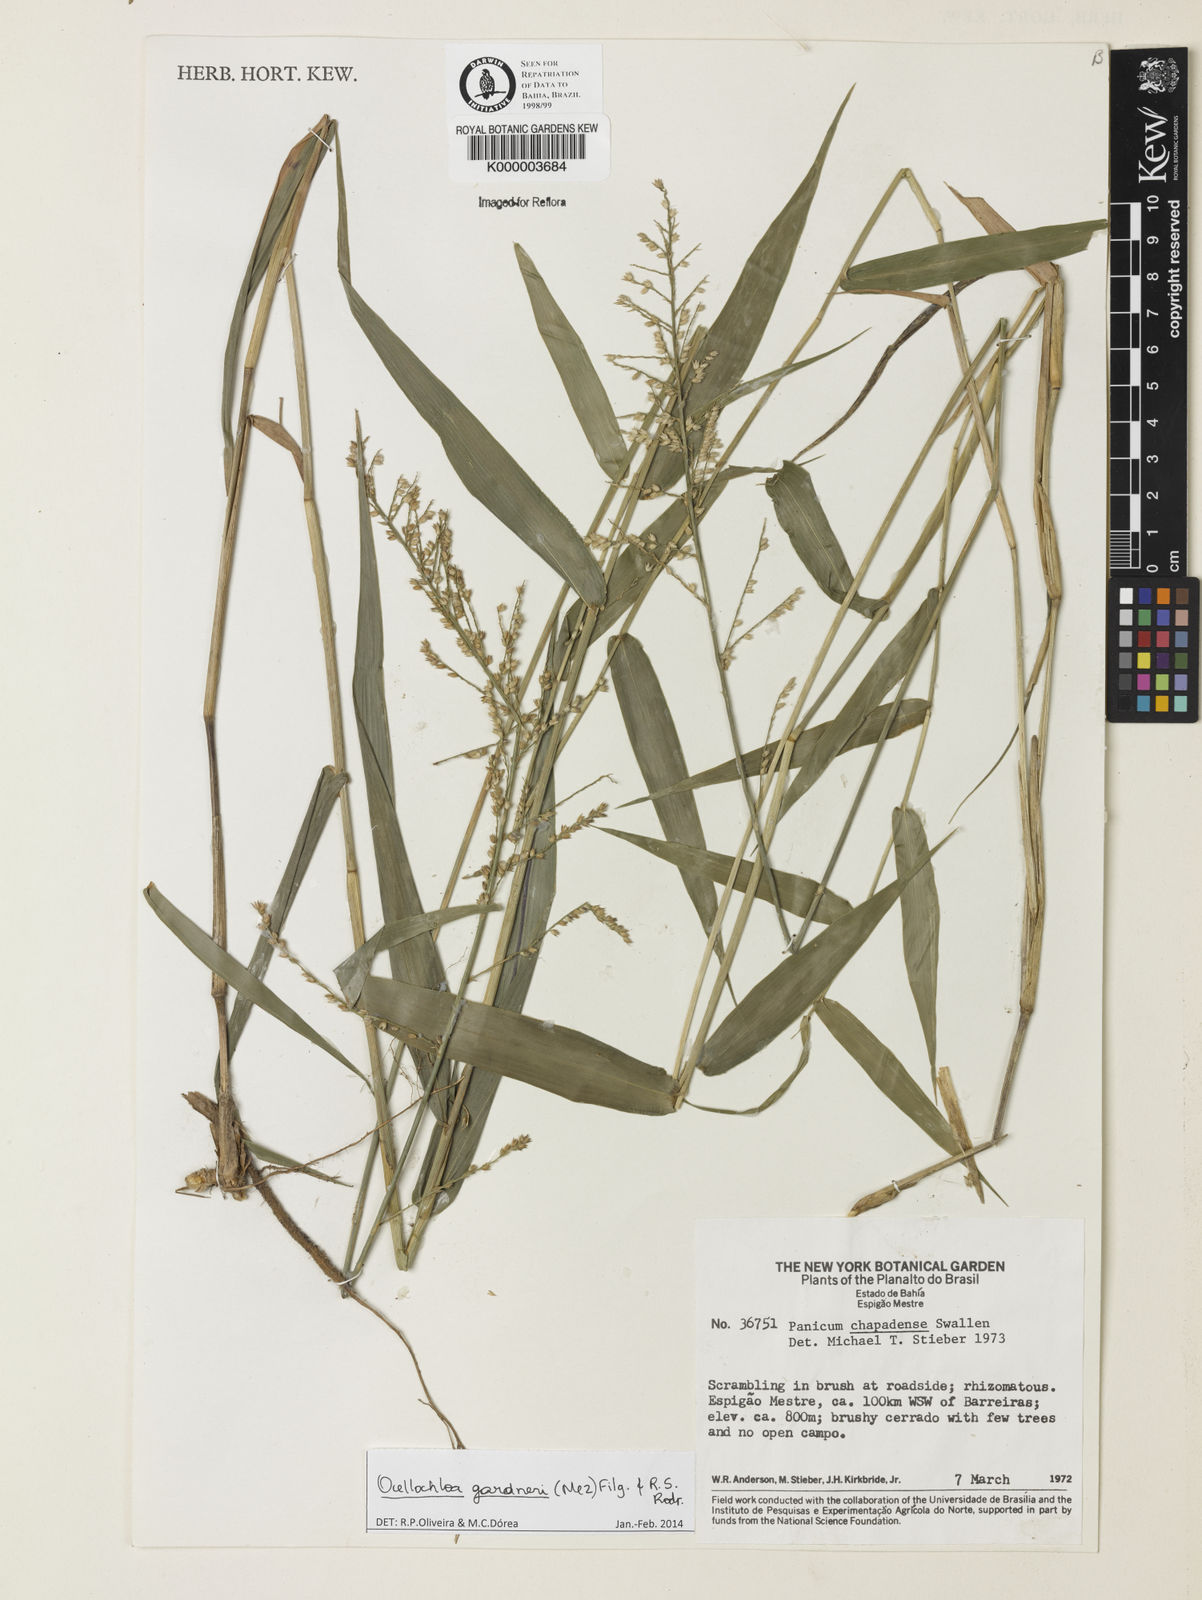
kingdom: Plantae
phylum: Tracheophyta
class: Liliopsida
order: Poales
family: Poaceae
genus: Ocellochloa
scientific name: Ocellochloa chapadensis
